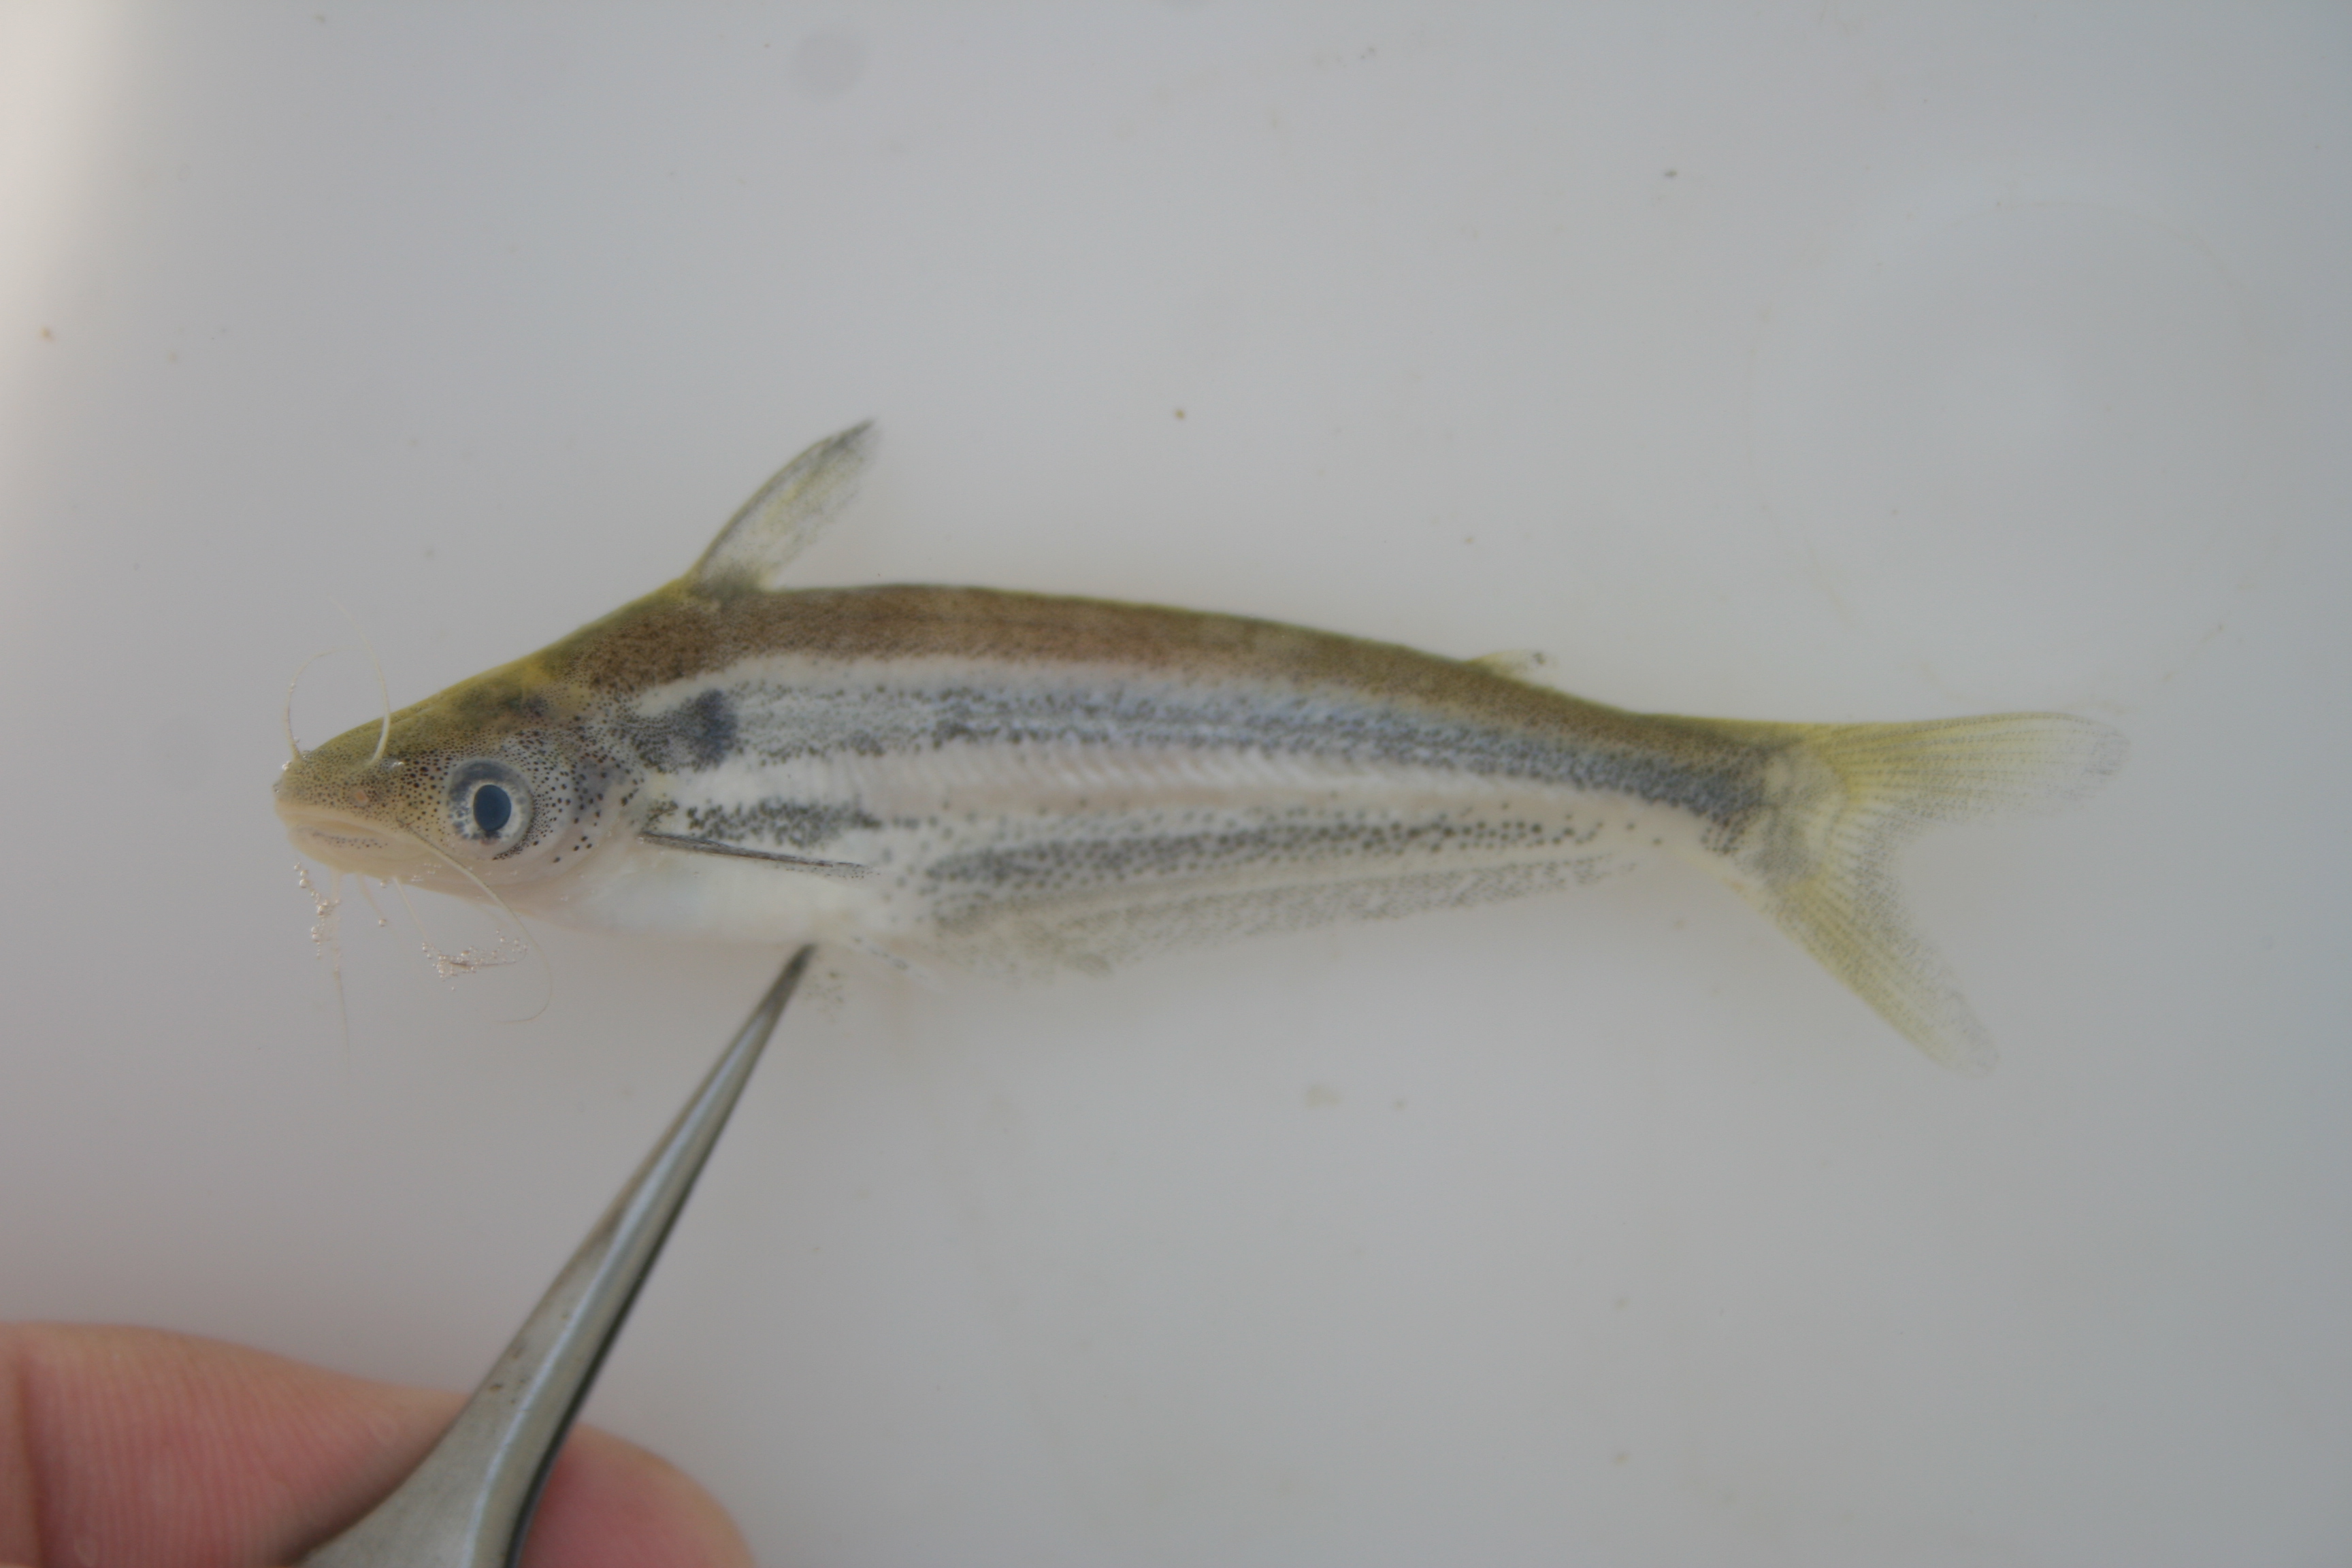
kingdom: Animalia
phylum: Chordata
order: Siluriformes
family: Schilbeidae
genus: Schilbe
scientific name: Schilbe bocagii
